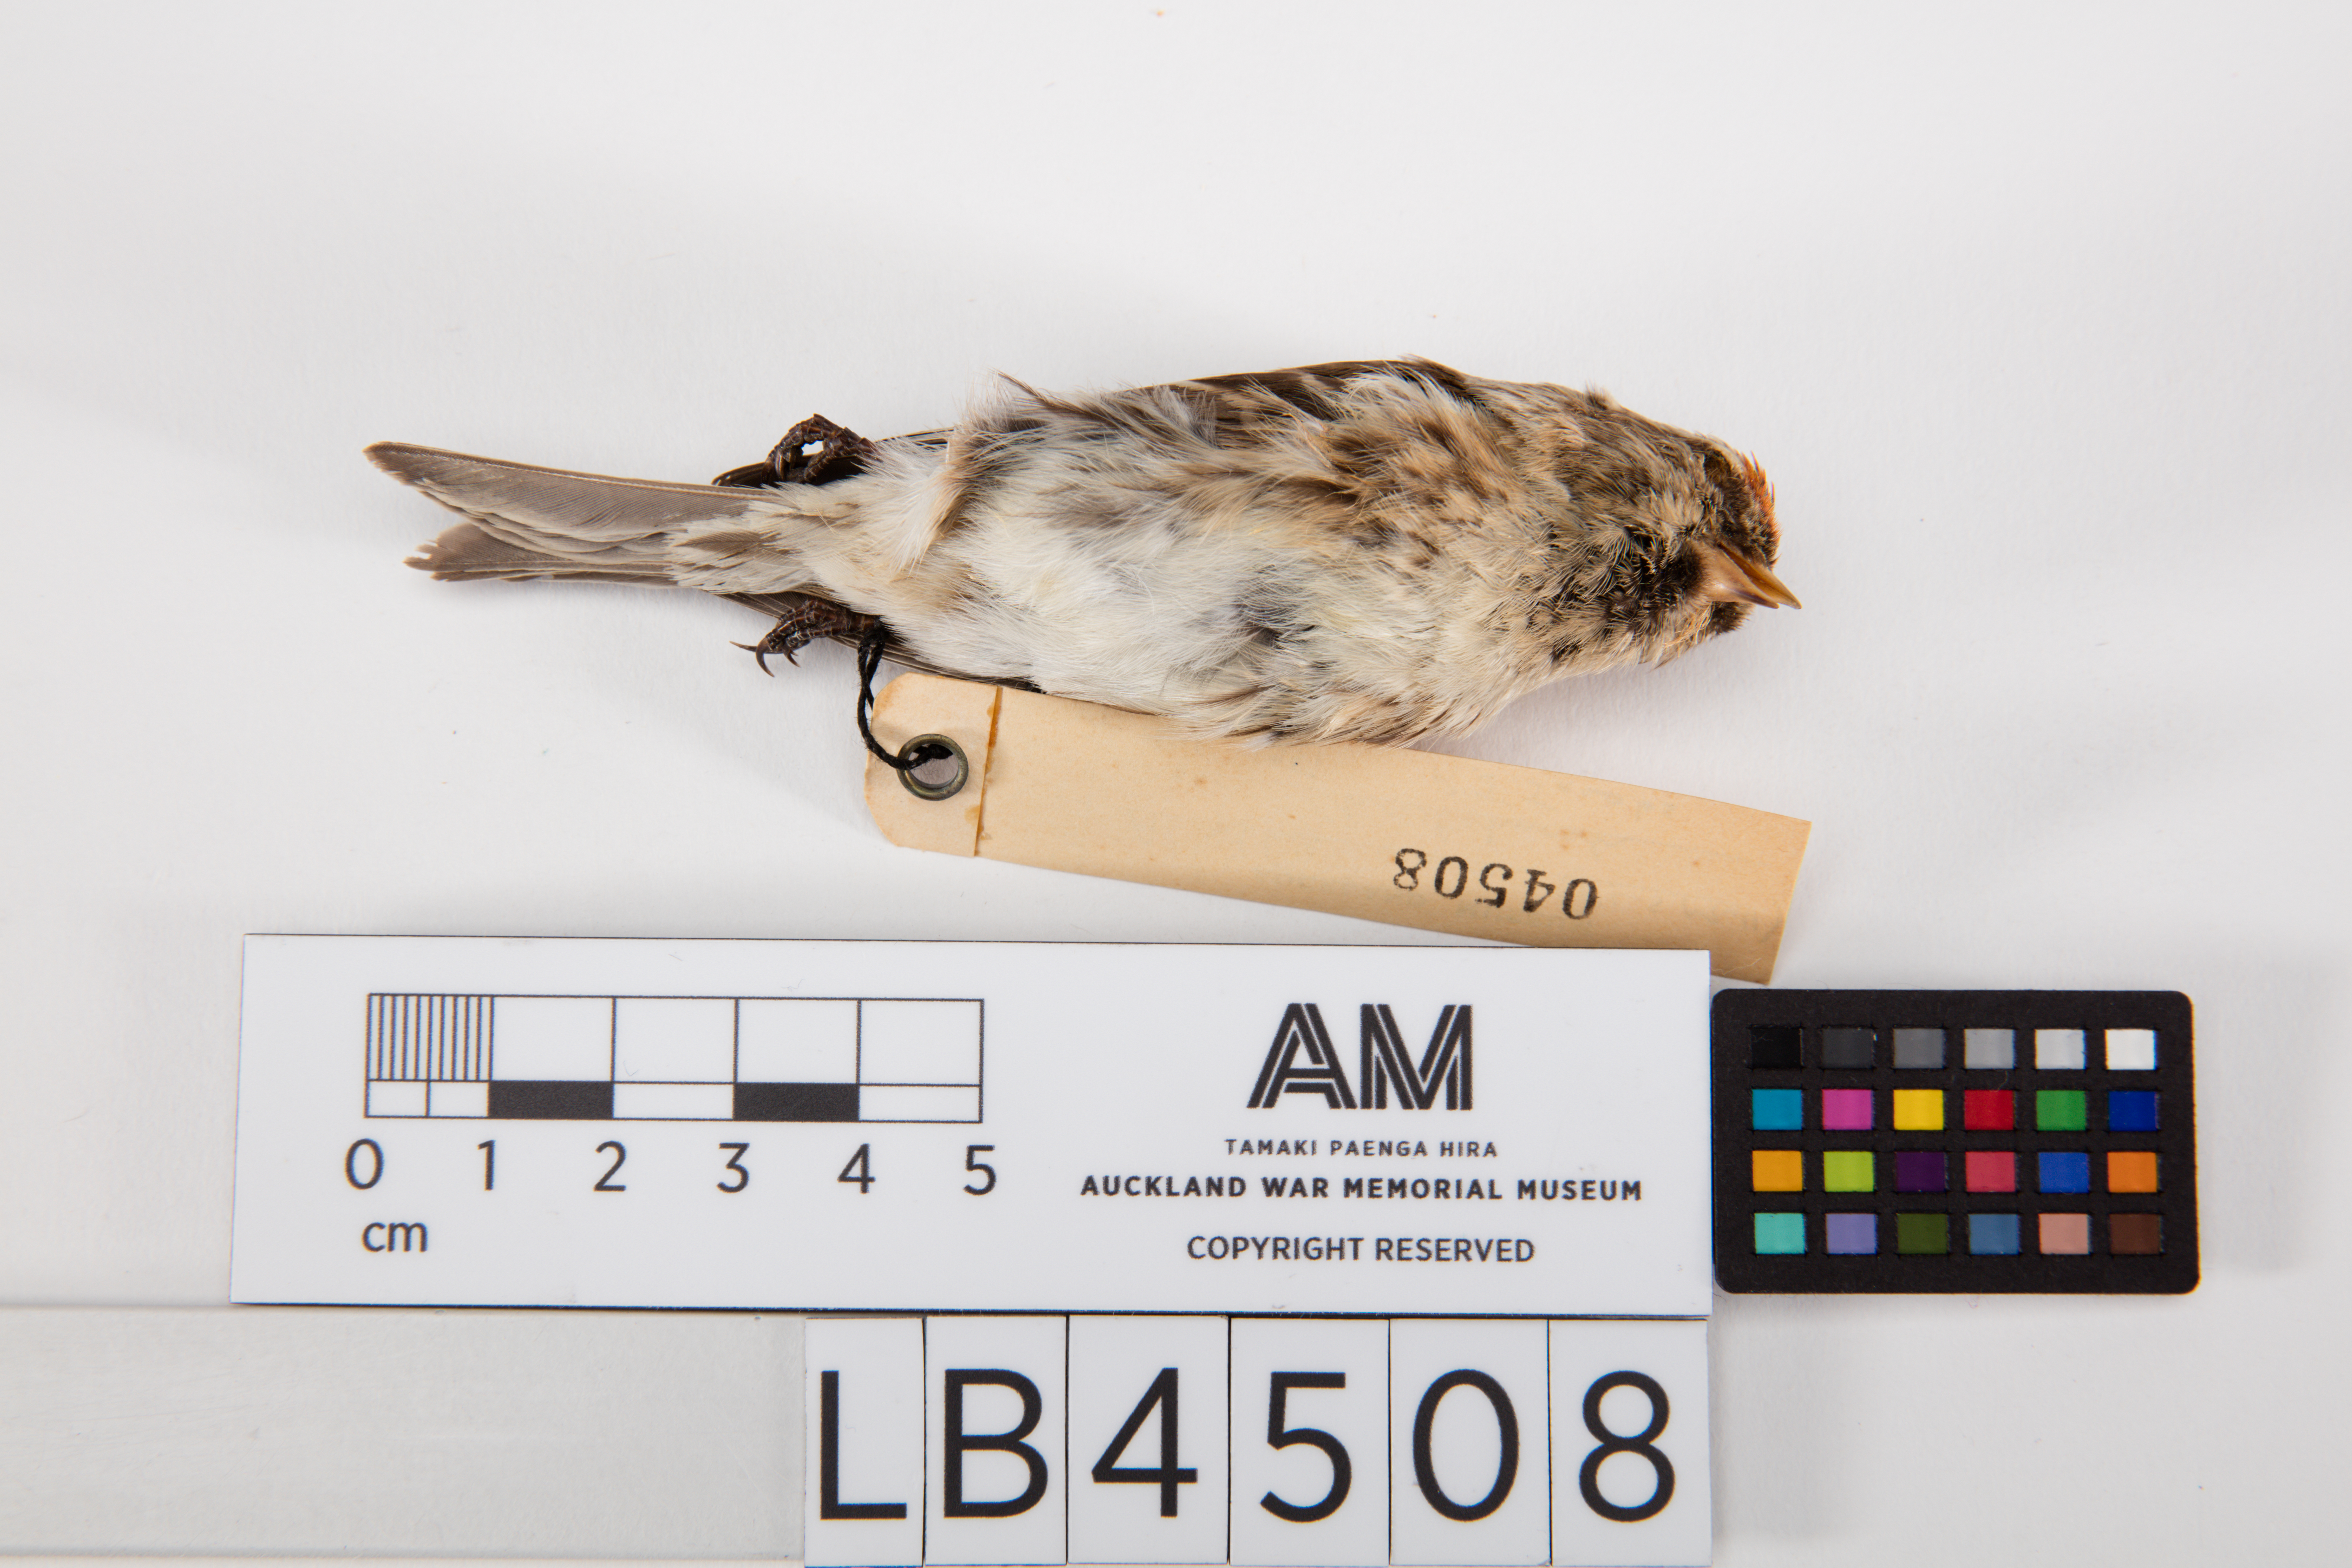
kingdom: Animalia
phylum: Chordata
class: Aves
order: Passeriformes
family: Fringillidae
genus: Acanthis
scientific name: Acanthis flammea
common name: Common redpoll
